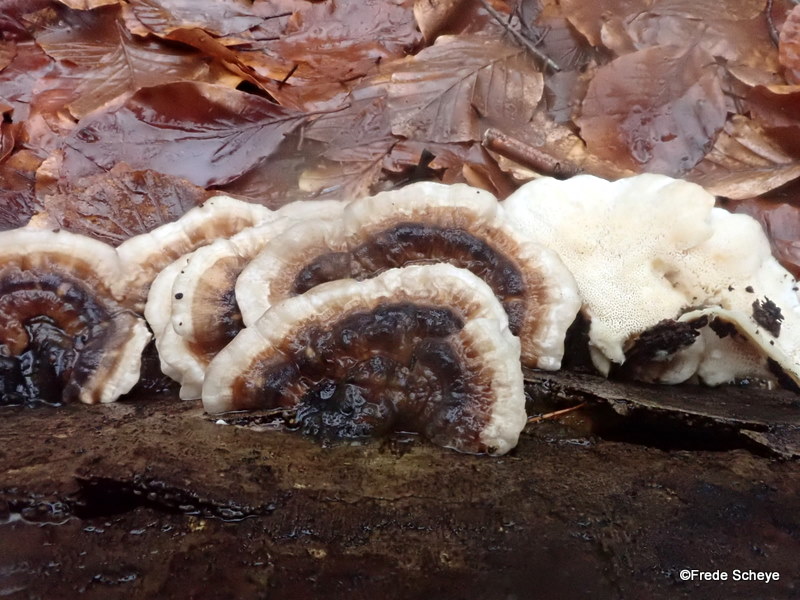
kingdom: Fungi
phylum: Basidiomycota
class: Agaricomycetes
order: Polyporales
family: Polyporaceae
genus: Trametes
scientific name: Trametes versicolor
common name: broget læderporesvamp
